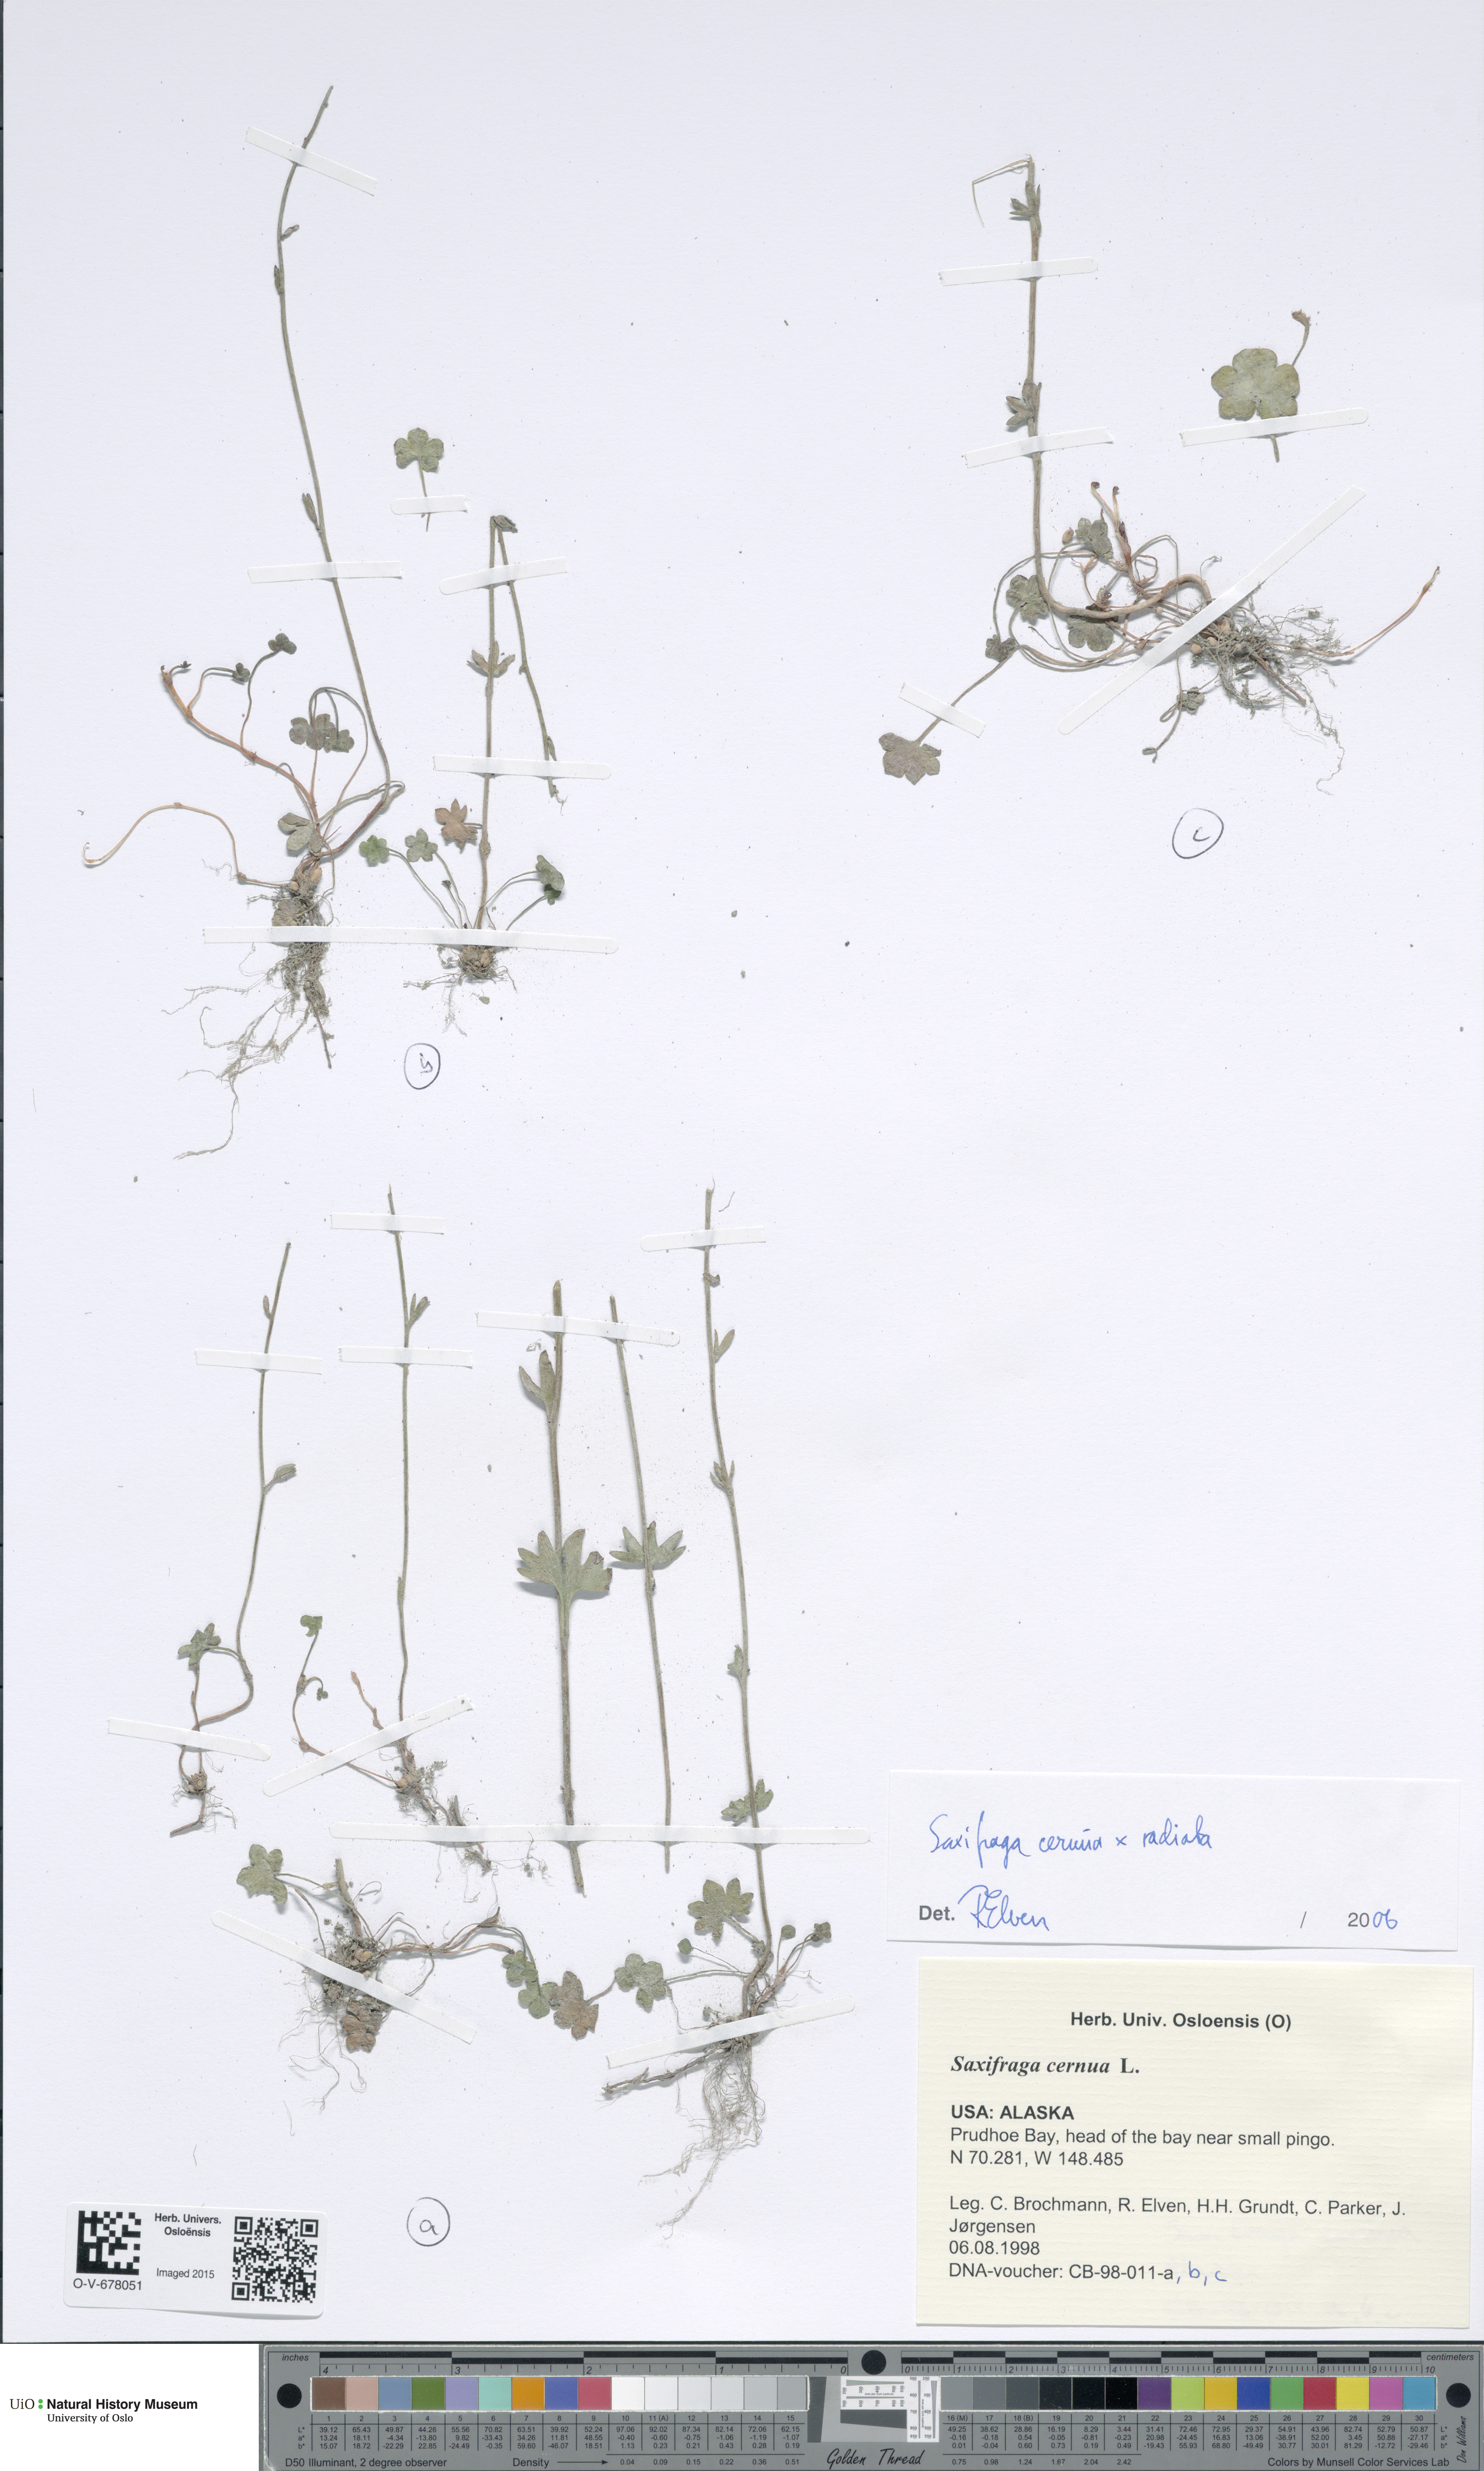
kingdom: Plantae
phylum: Tracheophyta
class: Magnoliopsida
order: Saxifragales
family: Saxifragaceae
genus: Saxifraga
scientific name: Saxifraga cernua
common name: Drooping saxifrage
